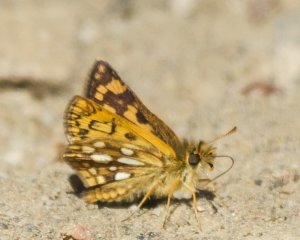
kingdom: Animalia
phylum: Arthropoda
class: Insecta
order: Lepidoptera
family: Hesperiidae
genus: Carterocephalus
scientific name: Carterocephalus palaemon
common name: Chequered Skipper
